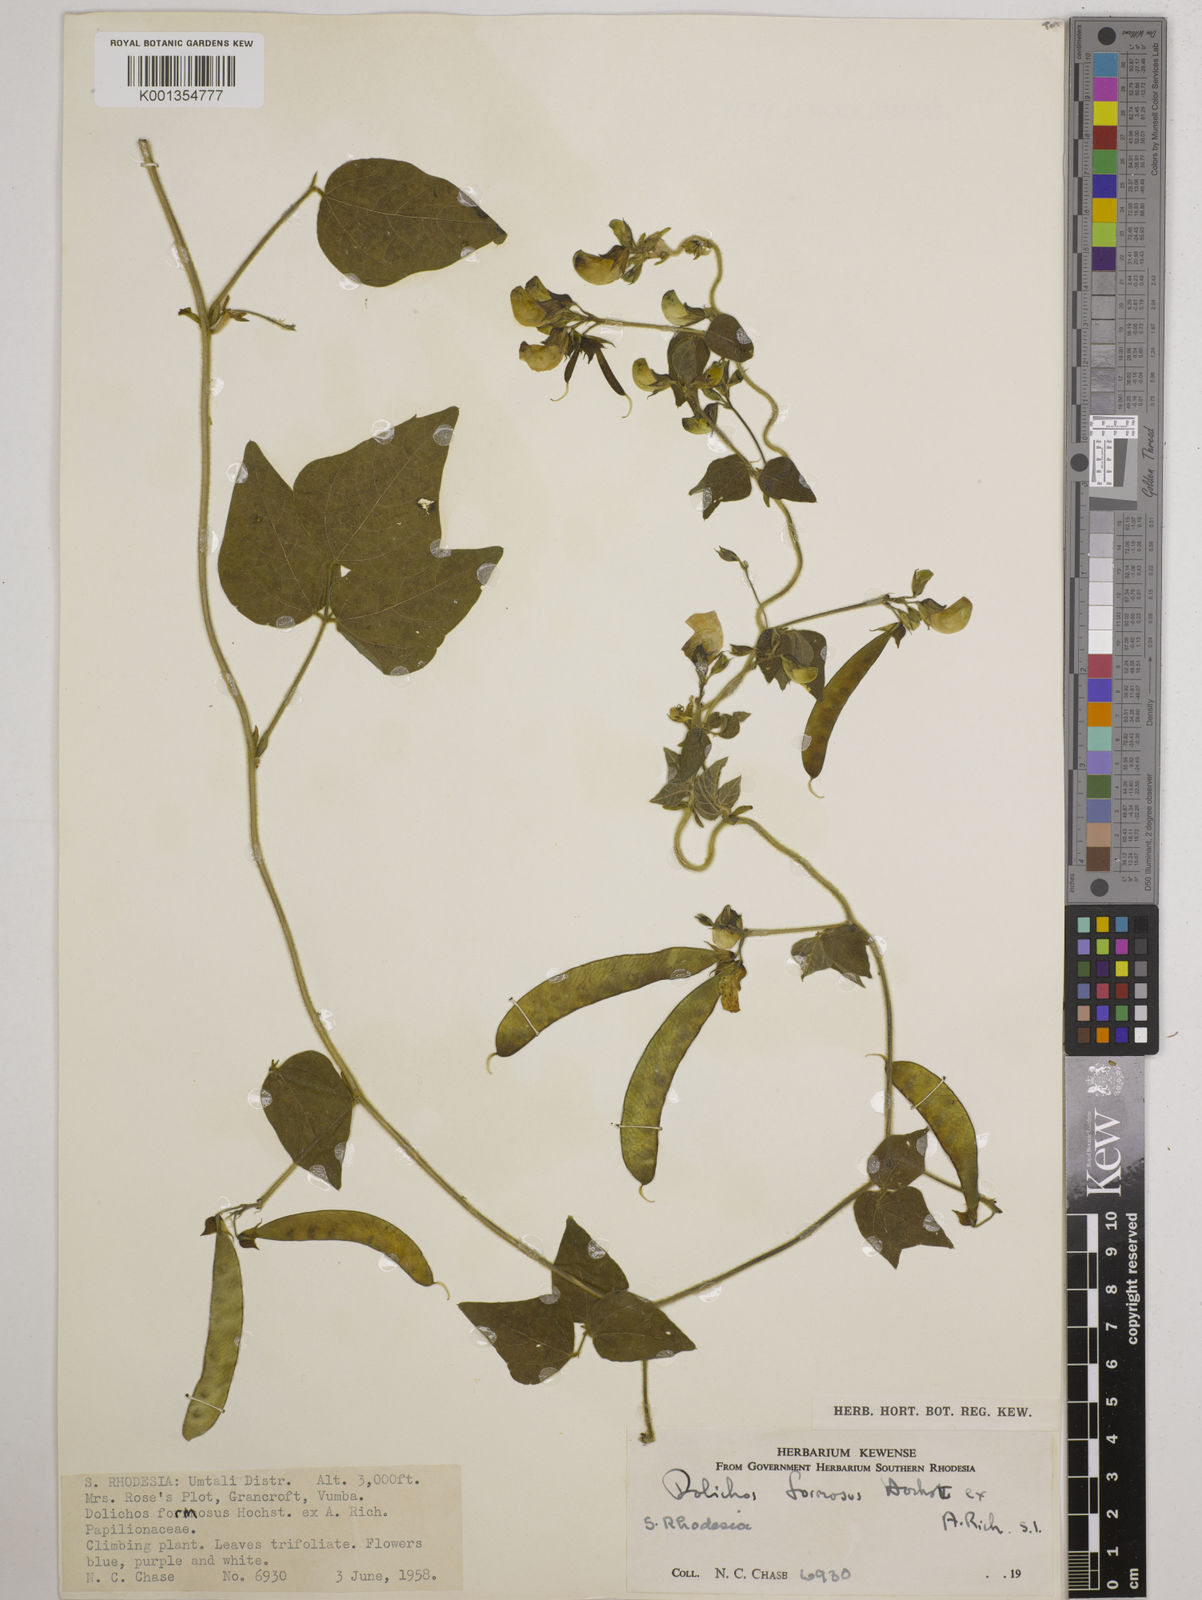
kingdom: Plantae
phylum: Tracheophyta
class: Magnoliopsida
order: Fabales
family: Fabaceae
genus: Dolichos
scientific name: Dolichos
